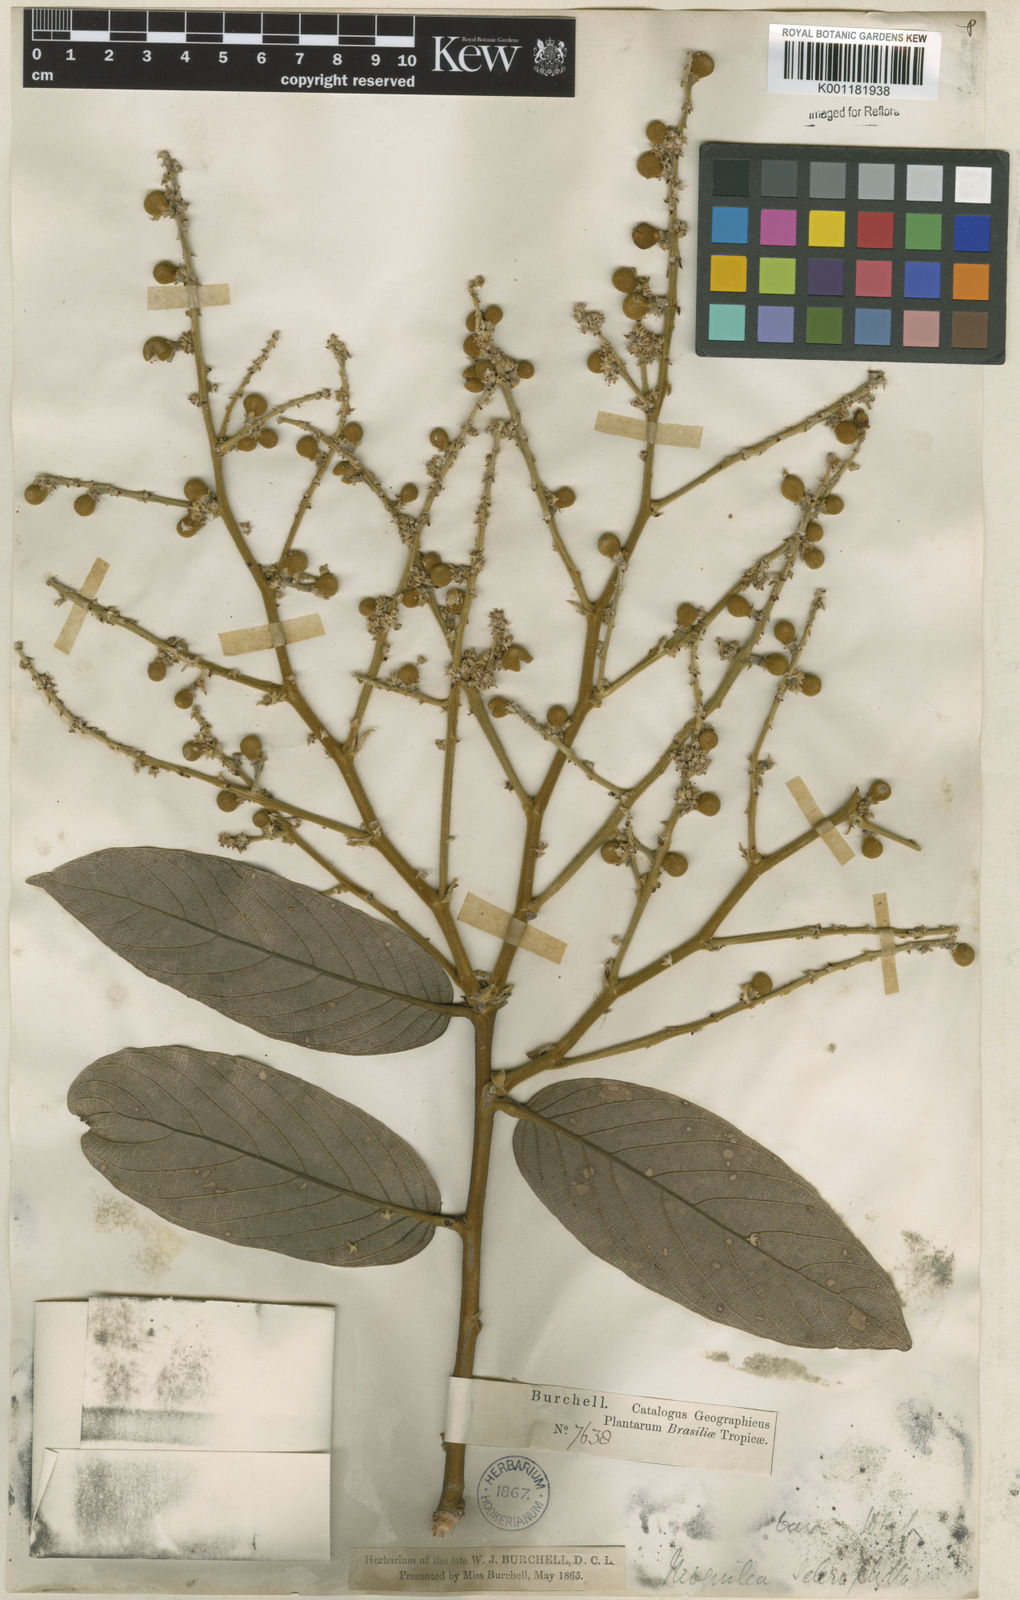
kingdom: Plantae
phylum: Tracheophyta
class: Magnoliopsida
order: Malpighiales
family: Chrysobalanaceae
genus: Leptobalanus
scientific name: Leptobalanus sclerophyllus
